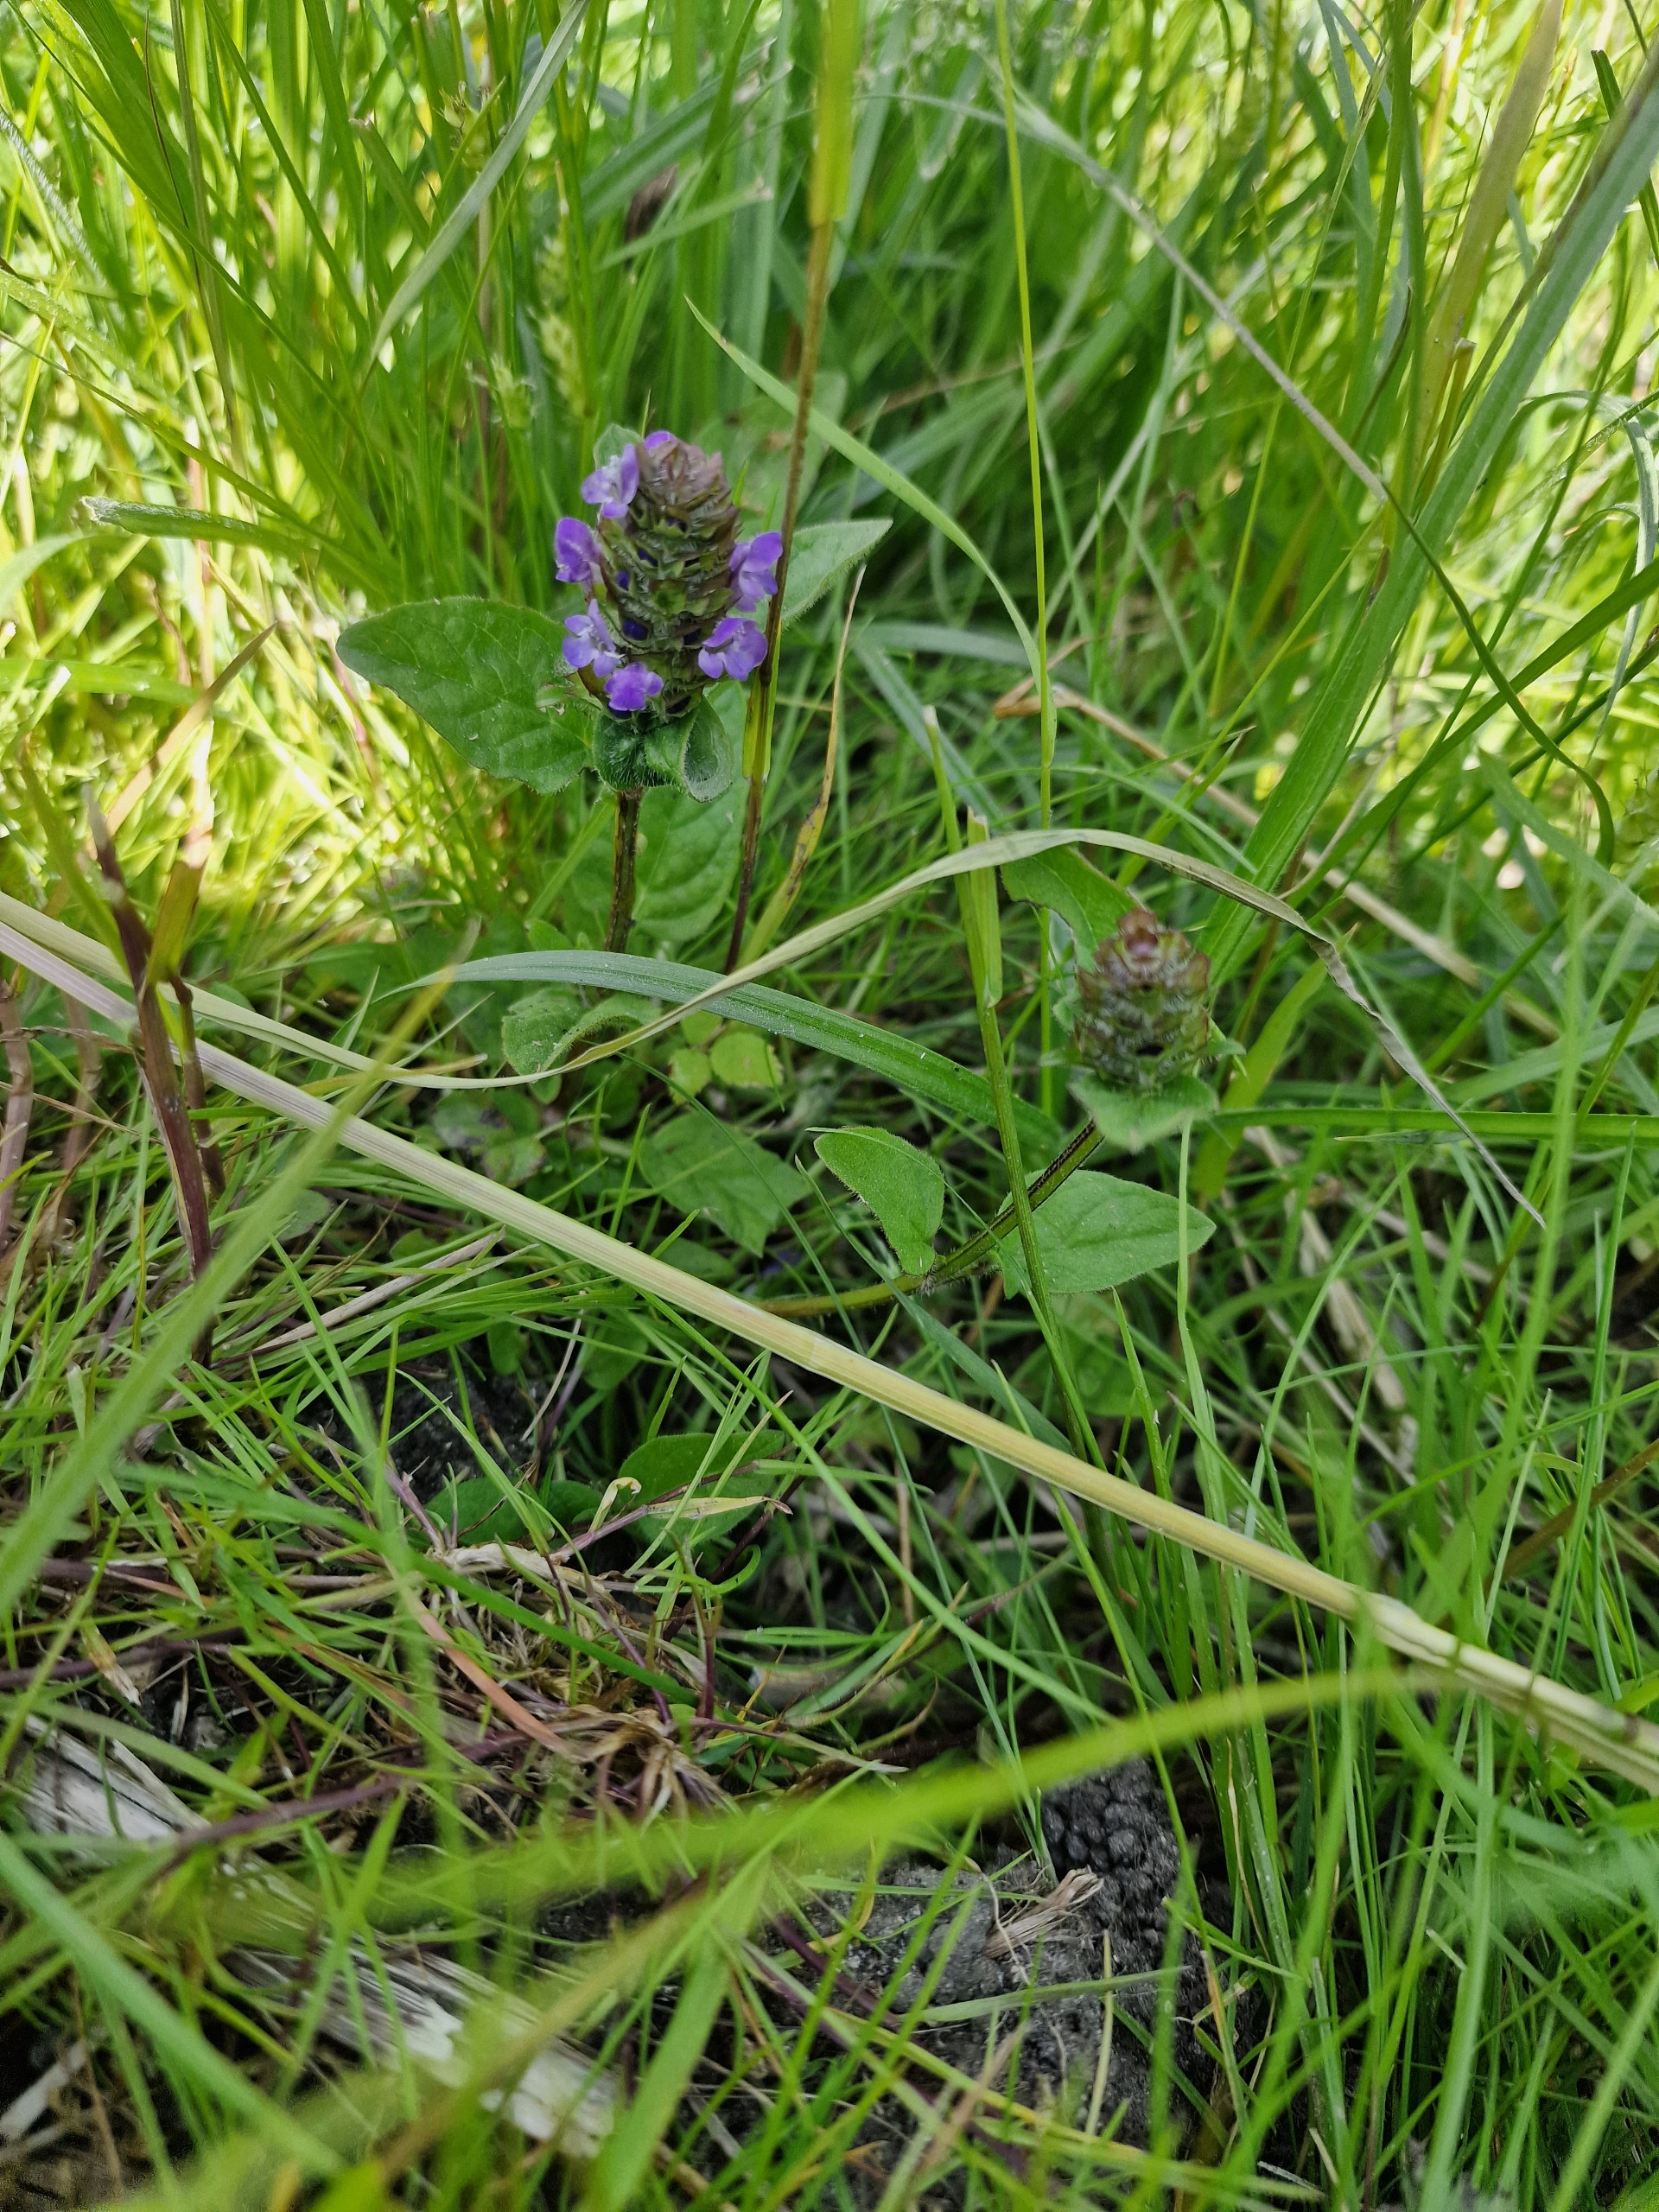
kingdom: Plantae
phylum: Tracheophyta
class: Magnoliopsida
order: Lamiales
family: Lamiaceae
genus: Prunella
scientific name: Prunella vulgaris
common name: Almindelig brunelle
